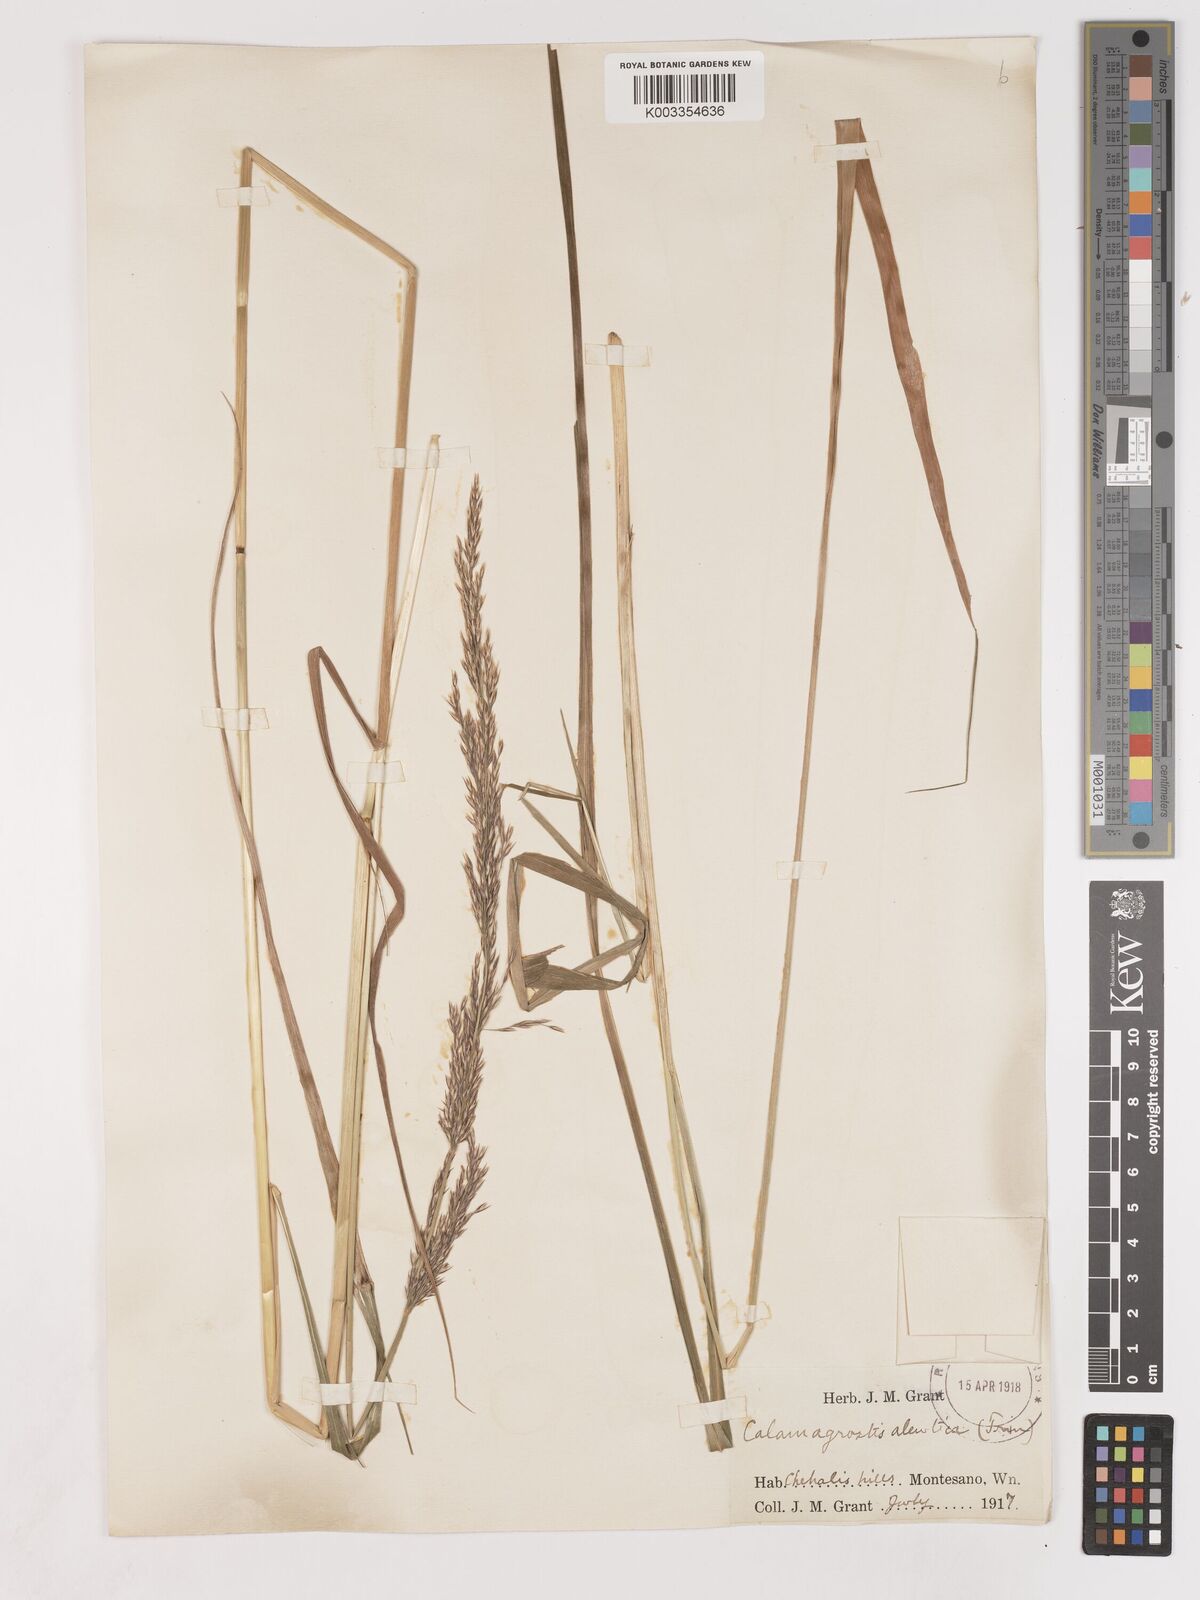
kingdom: Plantae
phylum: Tracheophyta
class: Liliopsida
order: Poales
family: Poaceae
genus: Calamagrostis
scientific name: Calamagrostis nutkaensis
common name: Pacific reed grass
